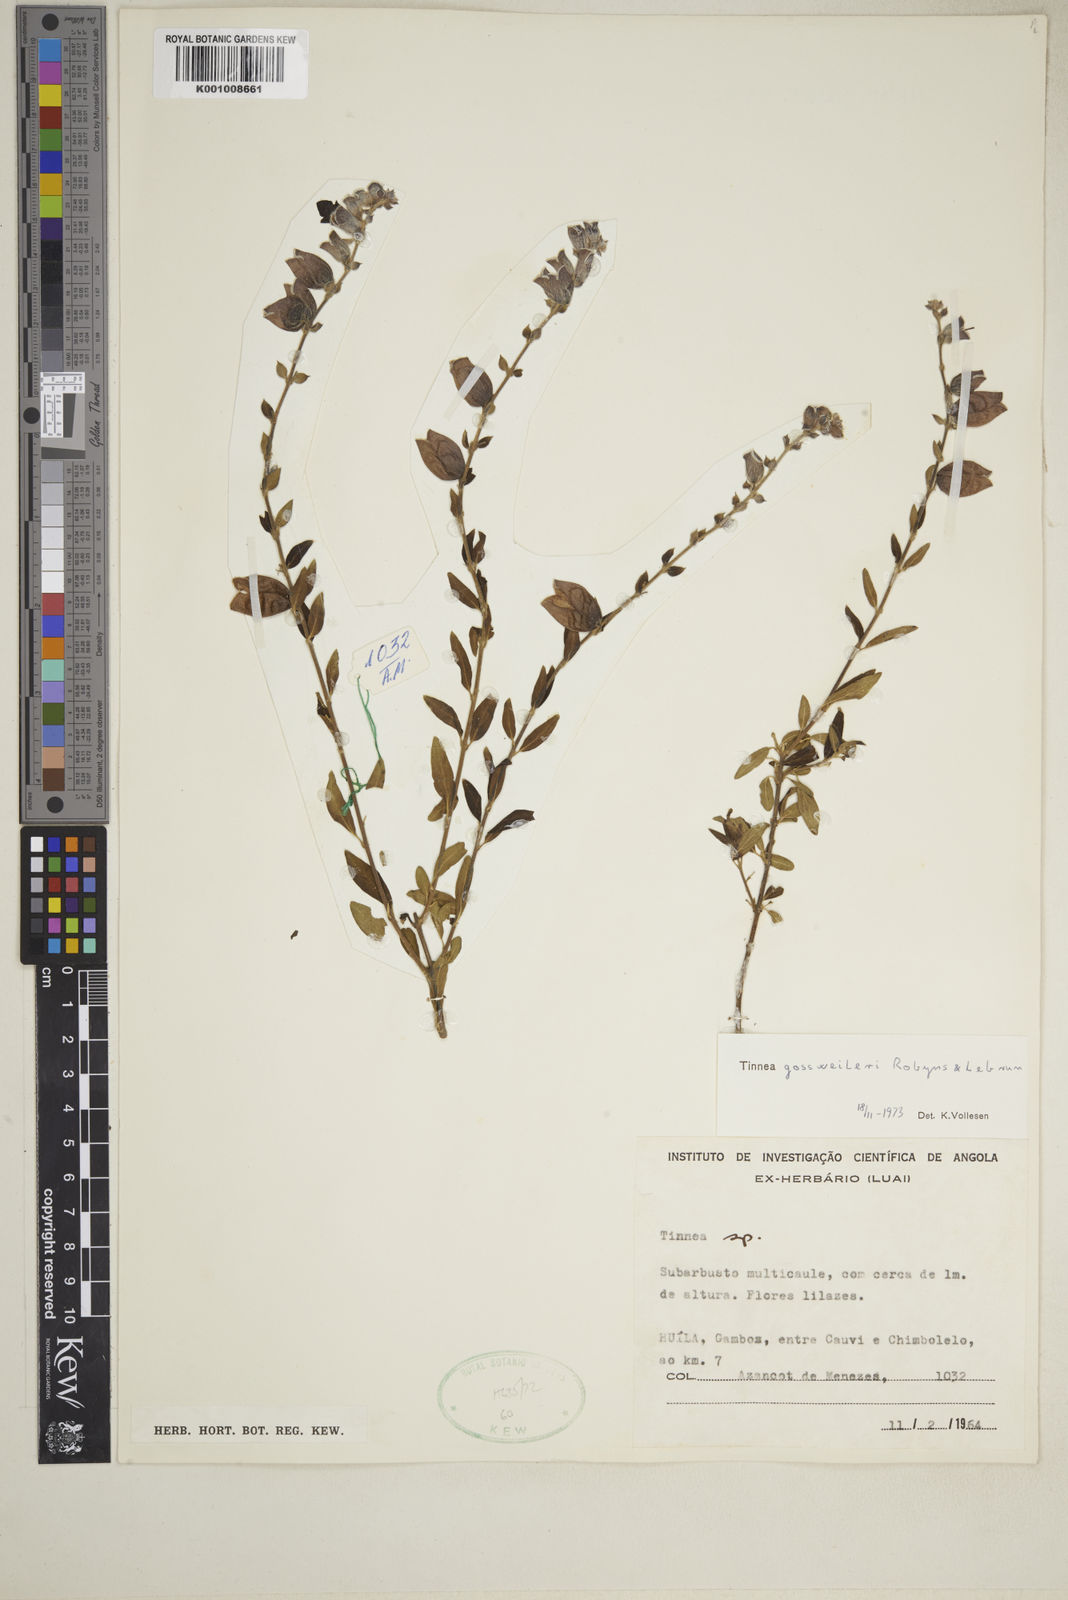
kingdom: Plantae
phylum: Tracheophyta
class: Magnoliopsida
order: Lamiales
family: Lamiaceae
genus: Tinnea
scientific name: Tinnea gossweileri
